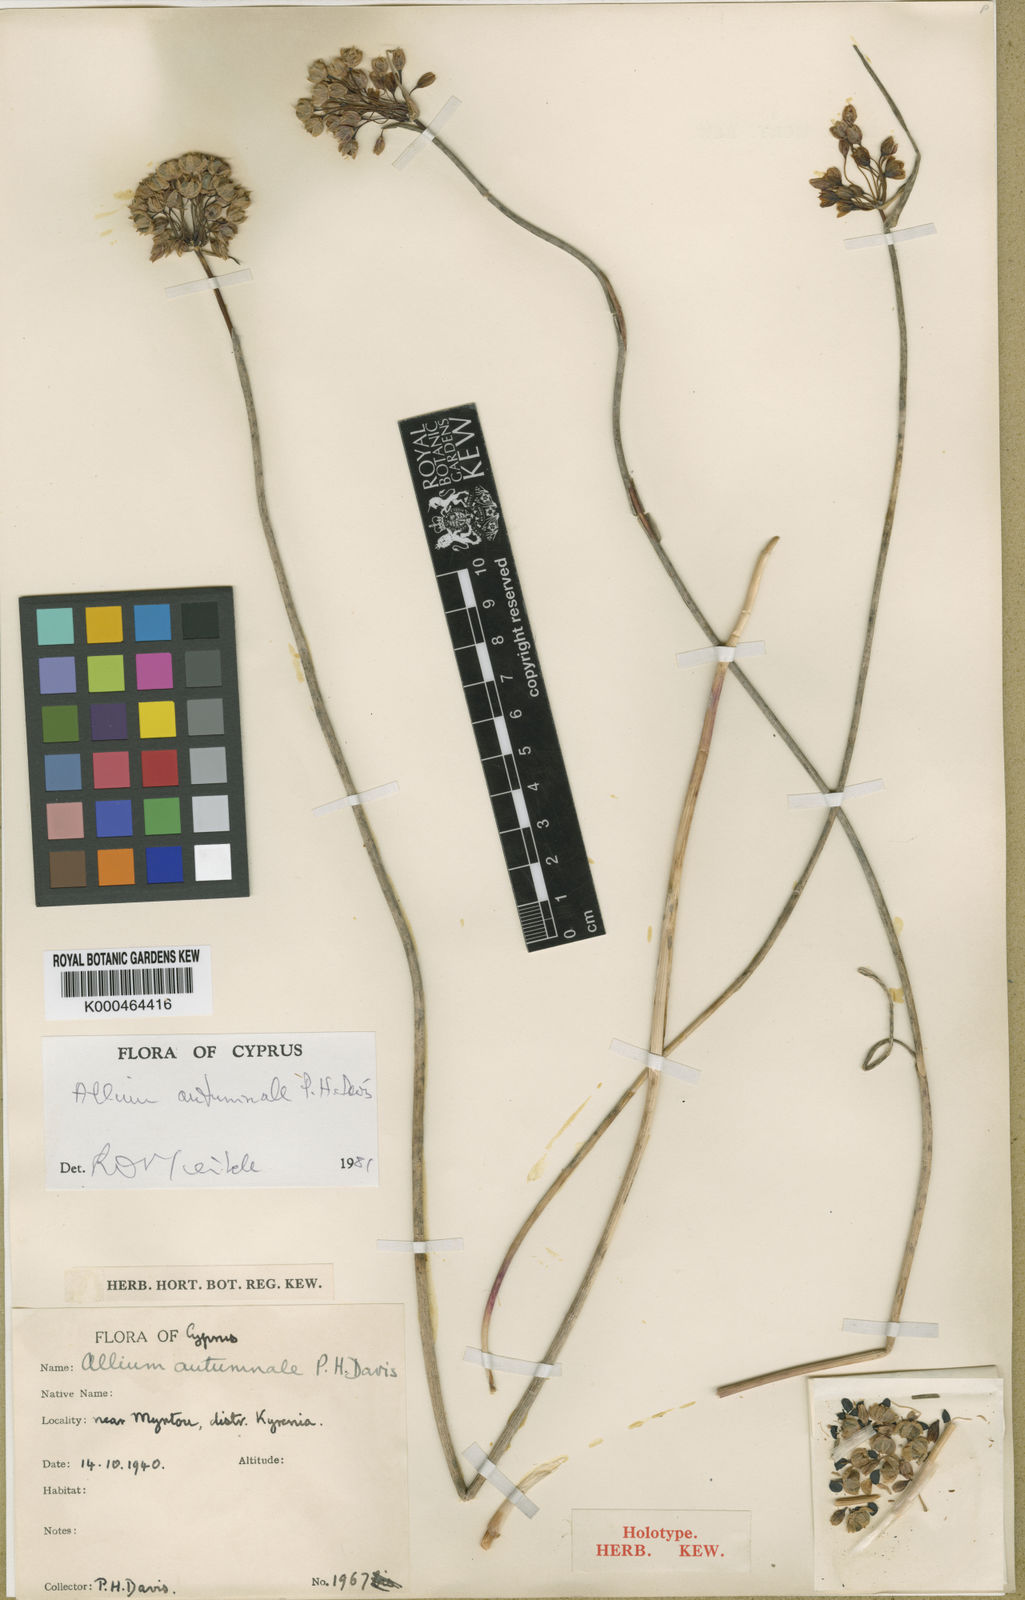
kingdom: Plantae
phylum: Tracheophyta
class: Liliopsida
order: Asparagales
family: Amaryllidaceae
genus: Allium
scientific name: Allium autumnale
